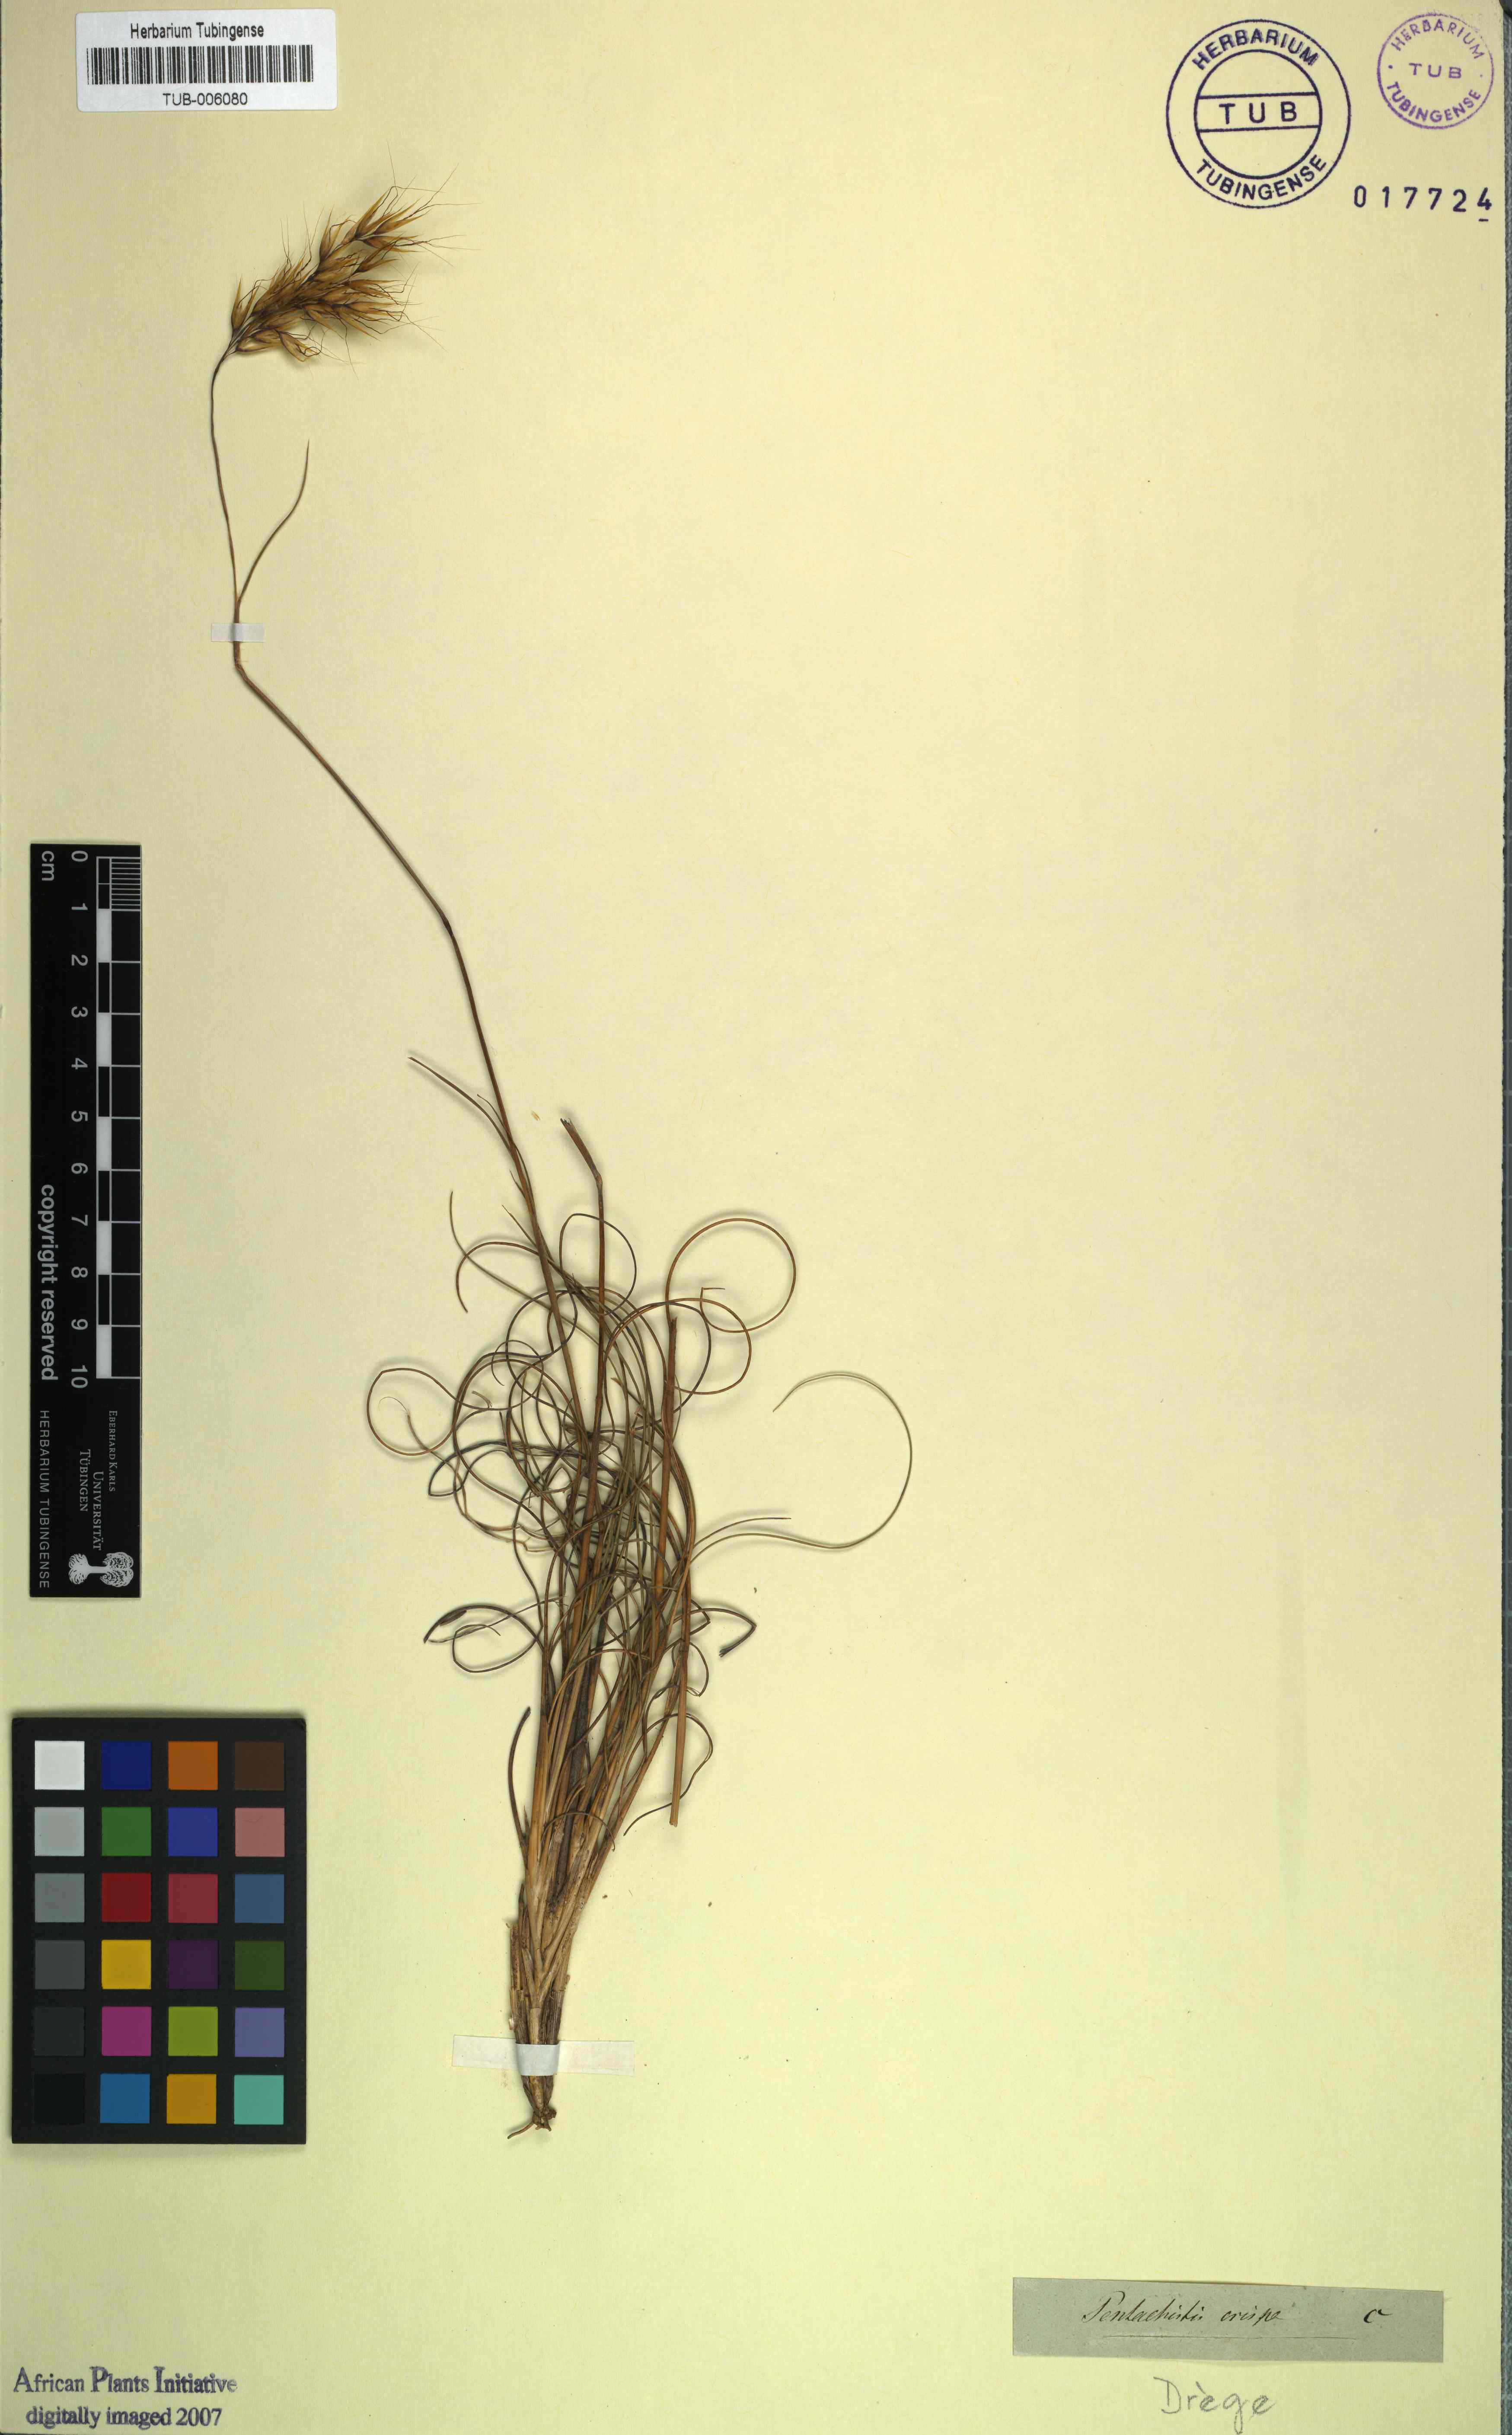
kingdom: Plantae
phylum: Tracheophyta
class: Liliopsida
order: Poales
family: Poaceae
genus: Pentameris
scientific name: Pentameris colorata
